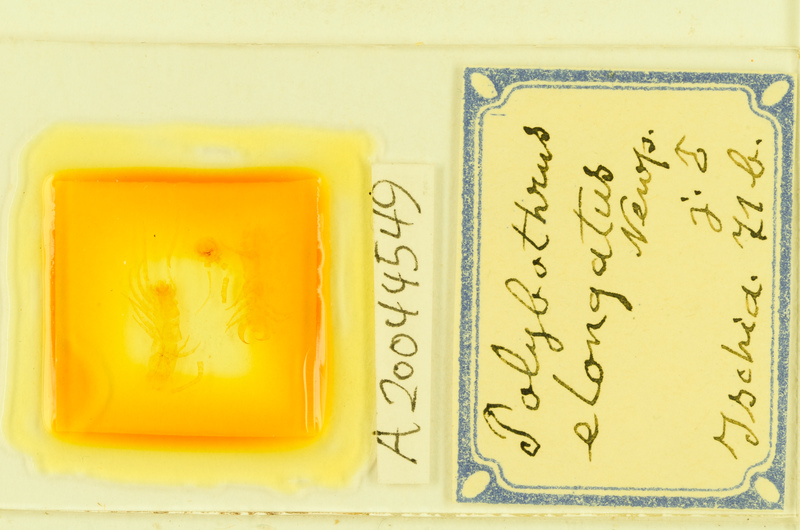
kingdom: Animalia
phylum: Arthropoda
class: Chilopoda
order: Lithobiomorpha
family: Lithobiidae
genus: Polybothrus
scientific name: Polybothrus
